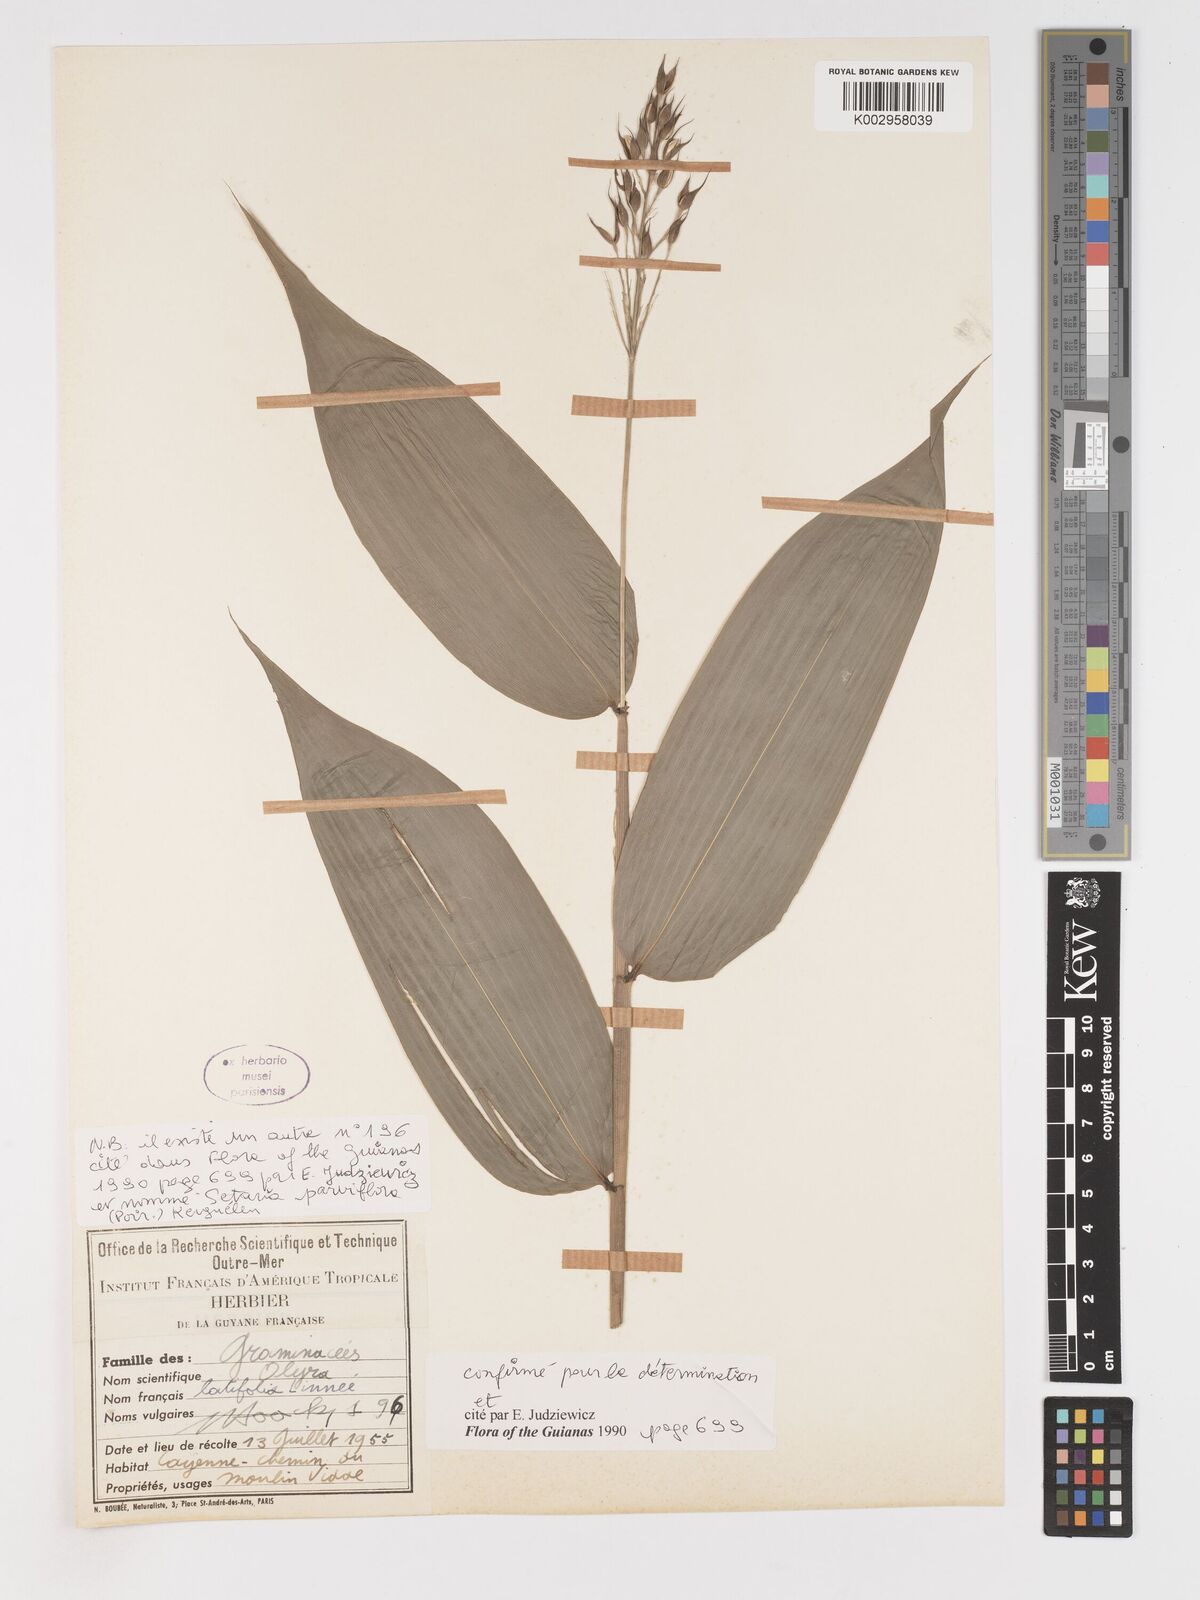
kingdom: Plantae
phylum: Tracheophyta
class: Liliopsida
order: Poales
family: Poaceae
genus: Olyra
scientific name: Olyra latifolia
